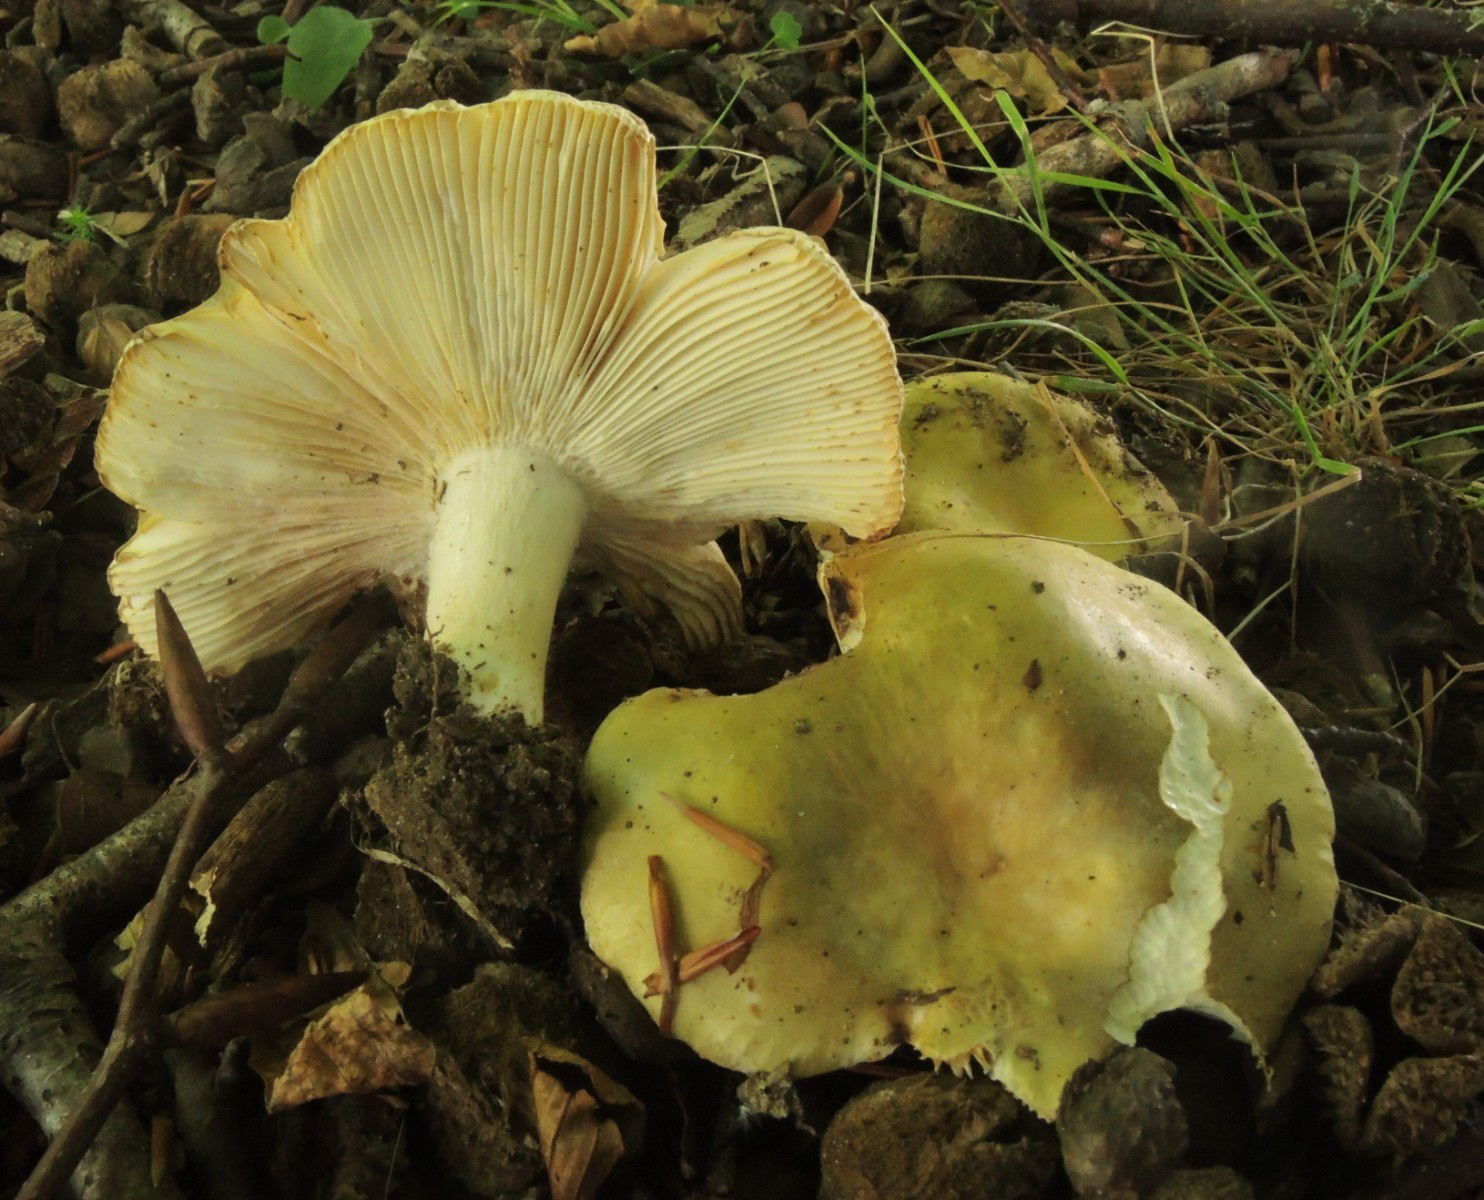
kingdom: Fungi
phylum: Basidiomycota
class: Agaricomycetes
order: Russulales
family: Russulaceae
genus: Russula
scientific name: Russula heterophylla
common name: gaffelbladet skørhat
